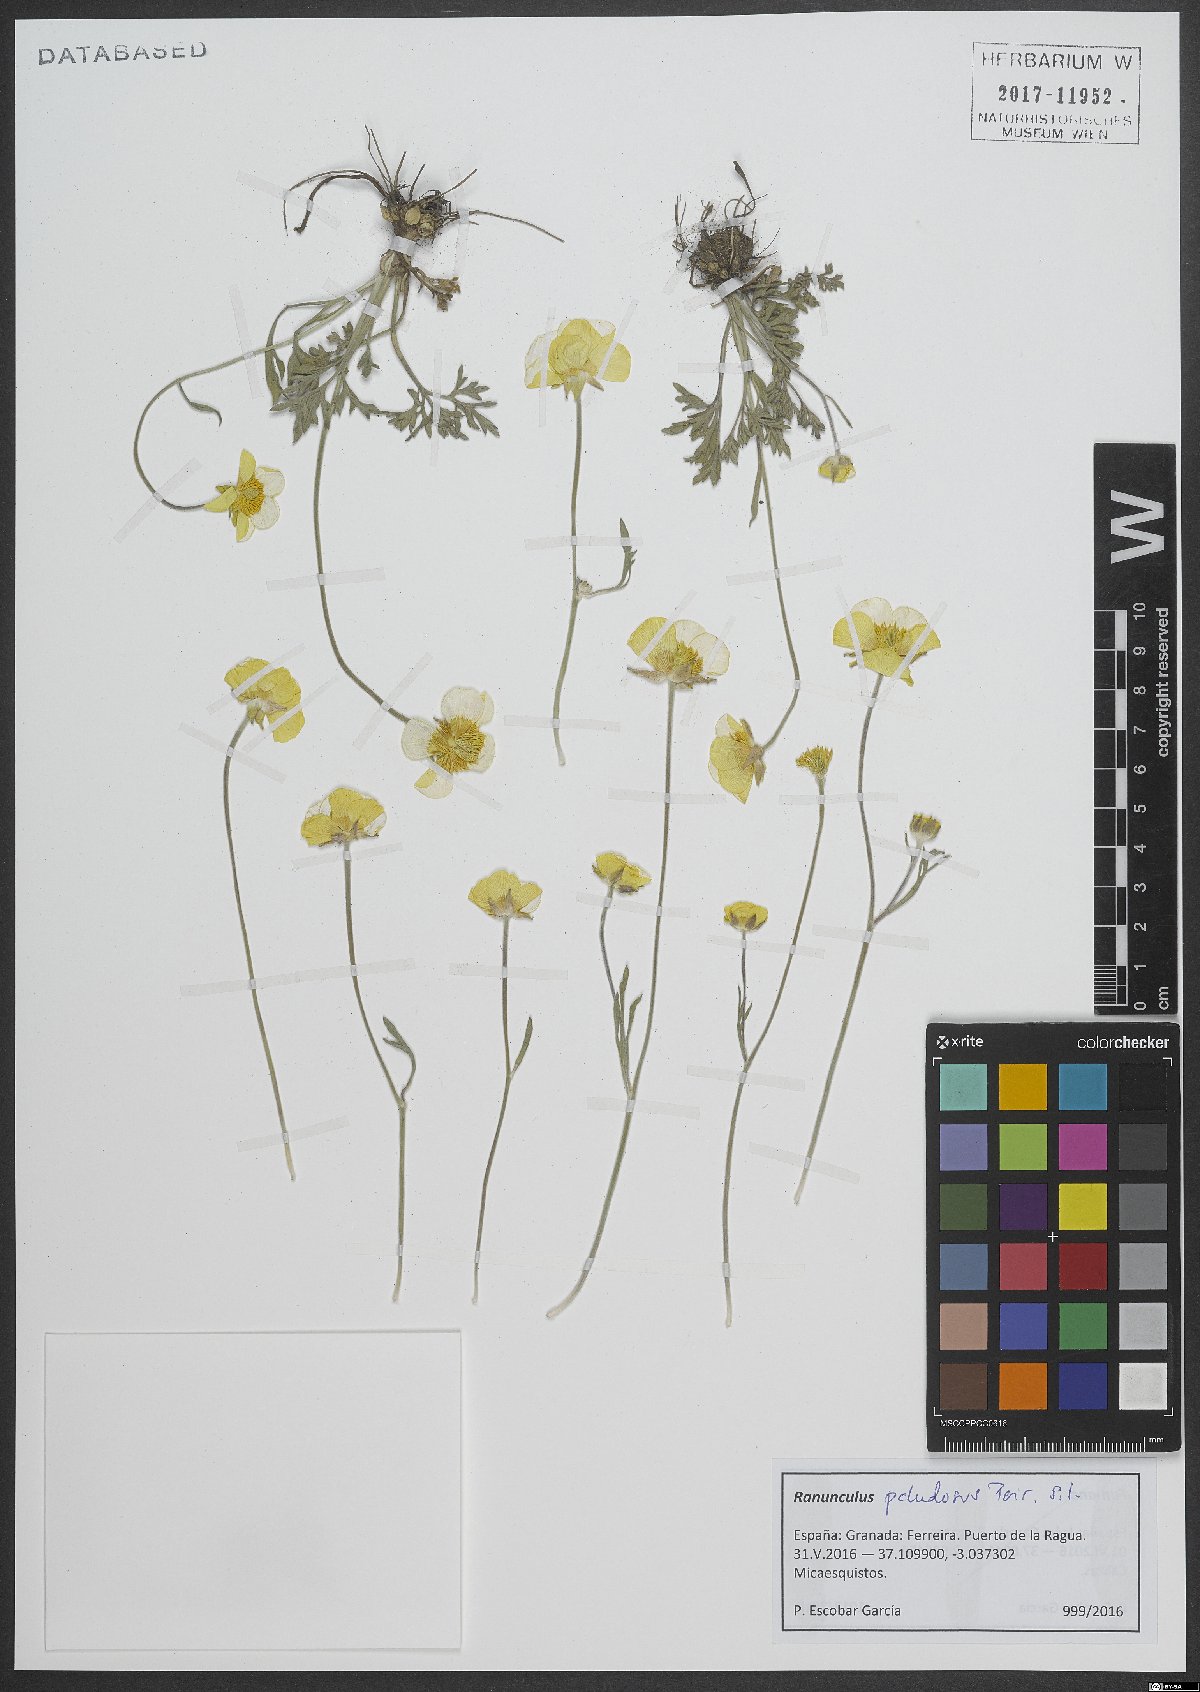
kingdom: Plantae
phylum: Tracheophyta
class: Magnoliopsida
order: Ranunculales
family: Ranunculaceae
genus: Ranunculus
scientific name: Ranunculus paludosus
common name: Jersey buttercup
